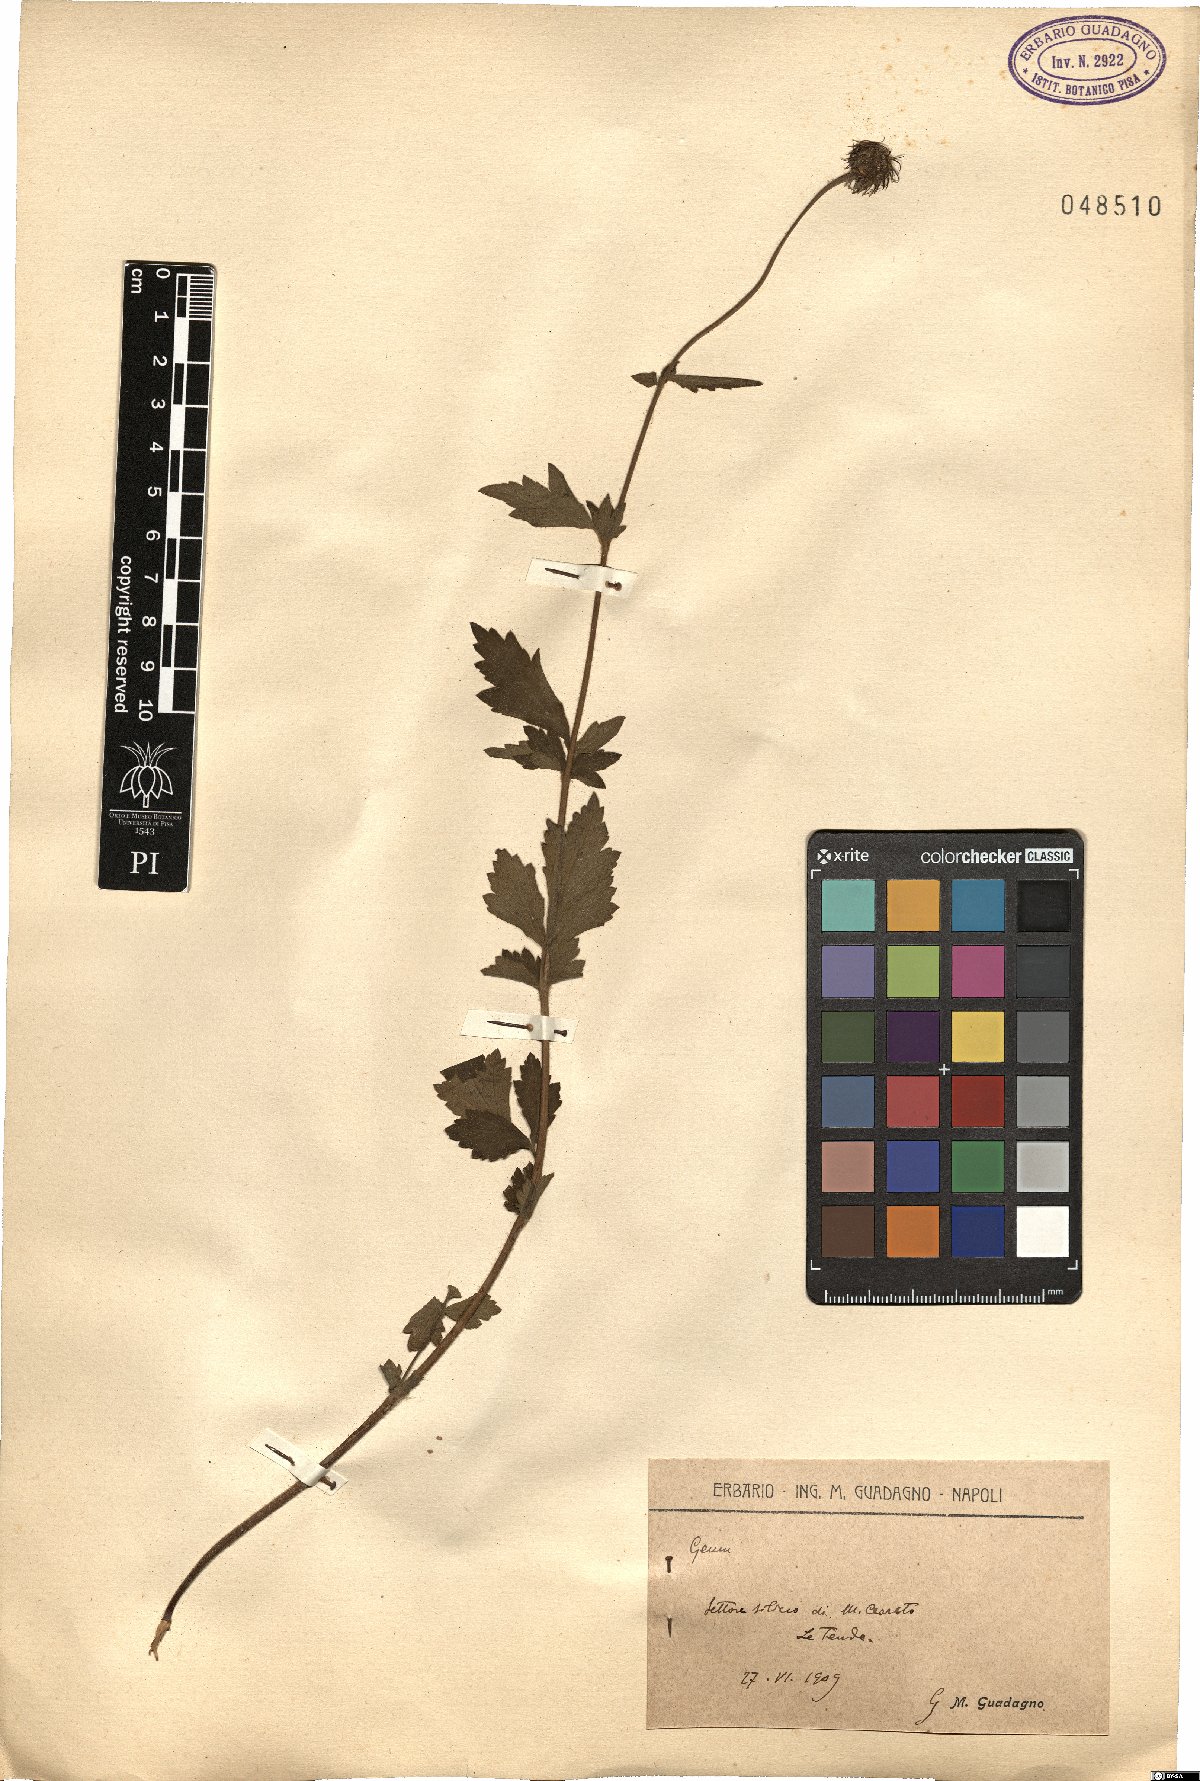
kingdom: Plantae
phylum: Tracheophyta
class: Magnoliopsida
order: Rosales
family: Rosaceae
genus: Geum
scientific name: Geum
